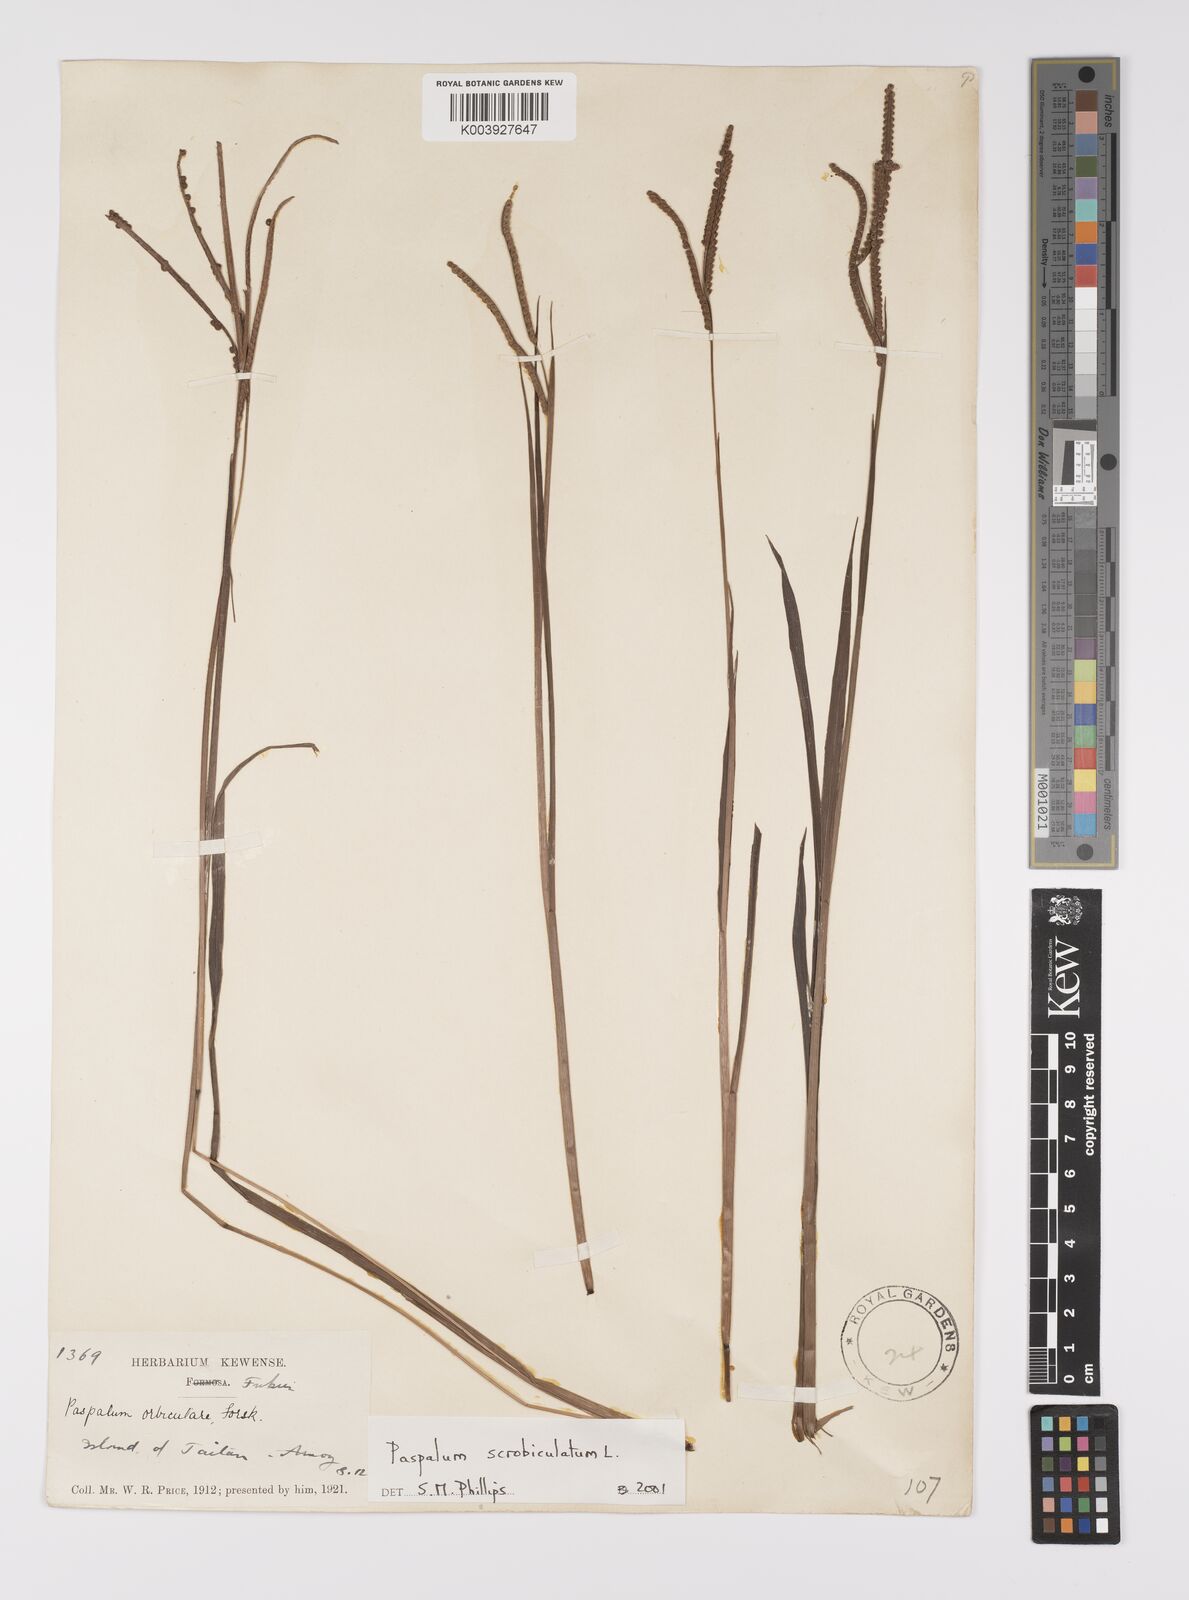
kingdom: Plantae
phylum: Tracheophyta
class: Liliopsida
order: Poales
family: Poaceae
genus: Paspalum
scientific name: Paspalum scrobiculatum
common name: Kodo millet
